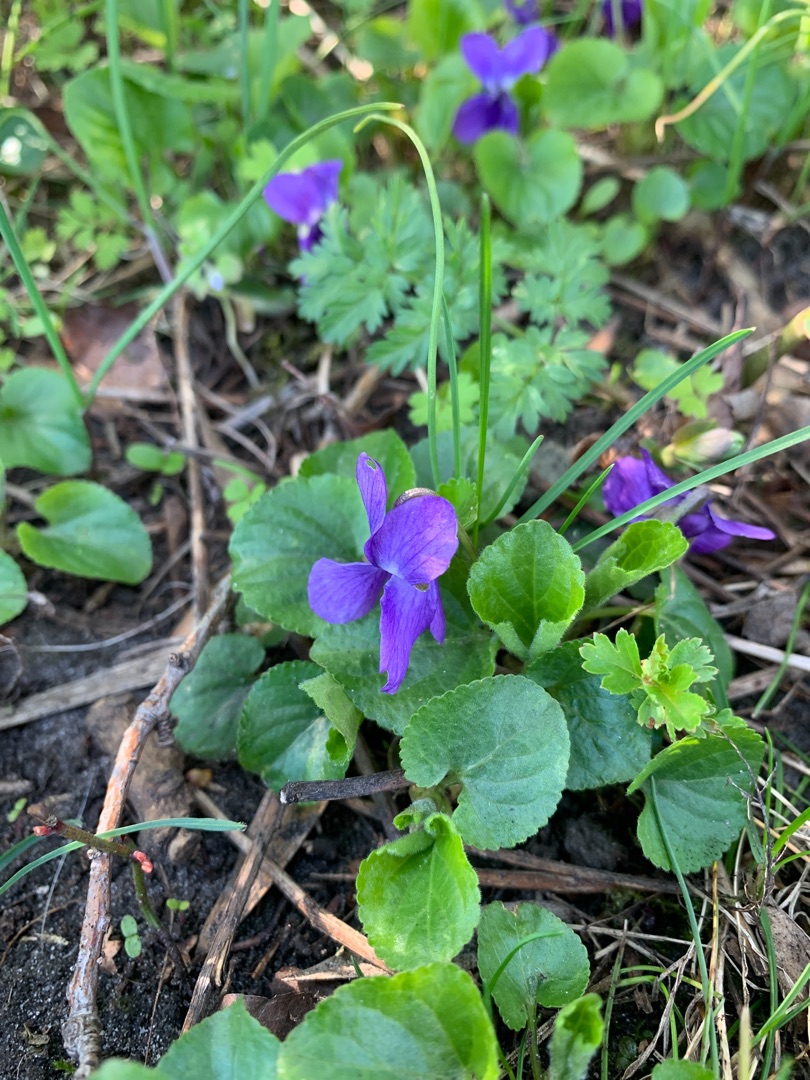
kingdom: Plantae
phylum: Tracheophyta
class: Magnoliopsida
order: Malpighiales
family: Violaceae
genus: Viola
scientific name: Viola odorata
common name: Marts-viol
